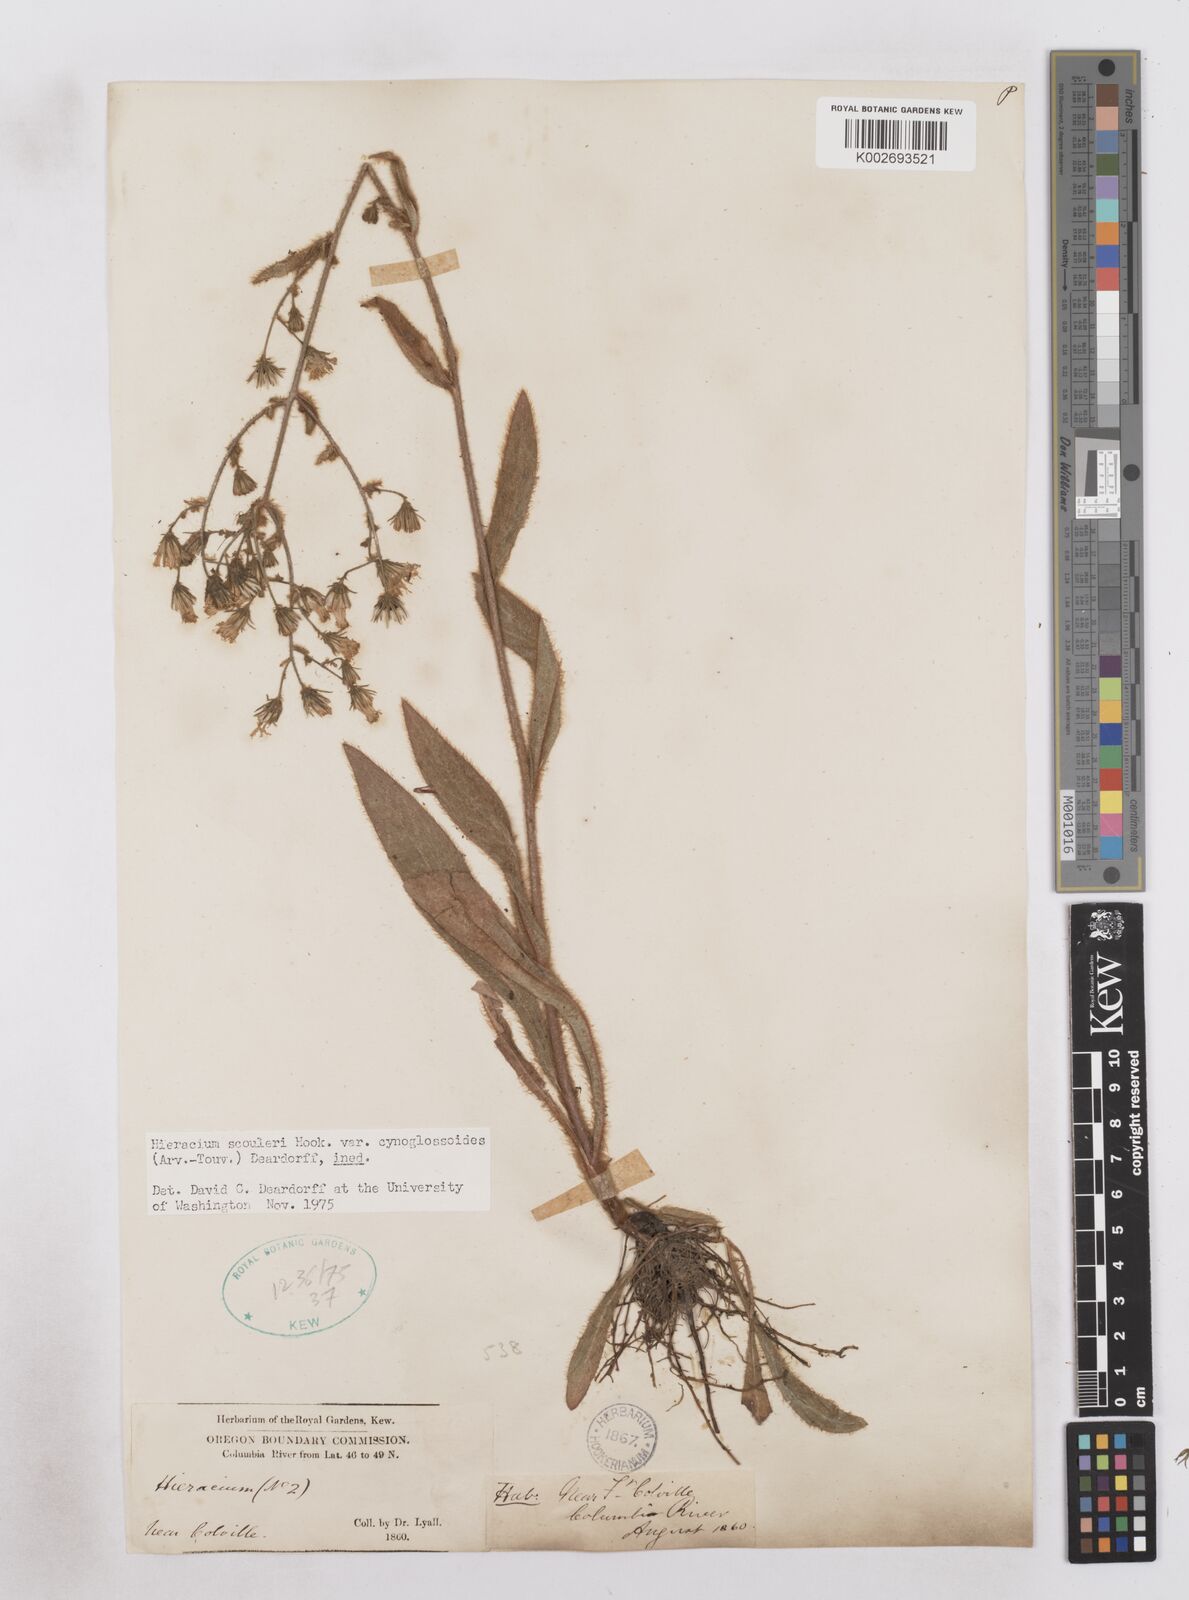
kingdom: Plantae
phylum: Tracheophyta
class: Magnoliopsida
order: Asterales
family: Asteraceae
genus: Hieracium
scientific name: Hieracium scouleri
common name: Hound's-tongue hawkweed
